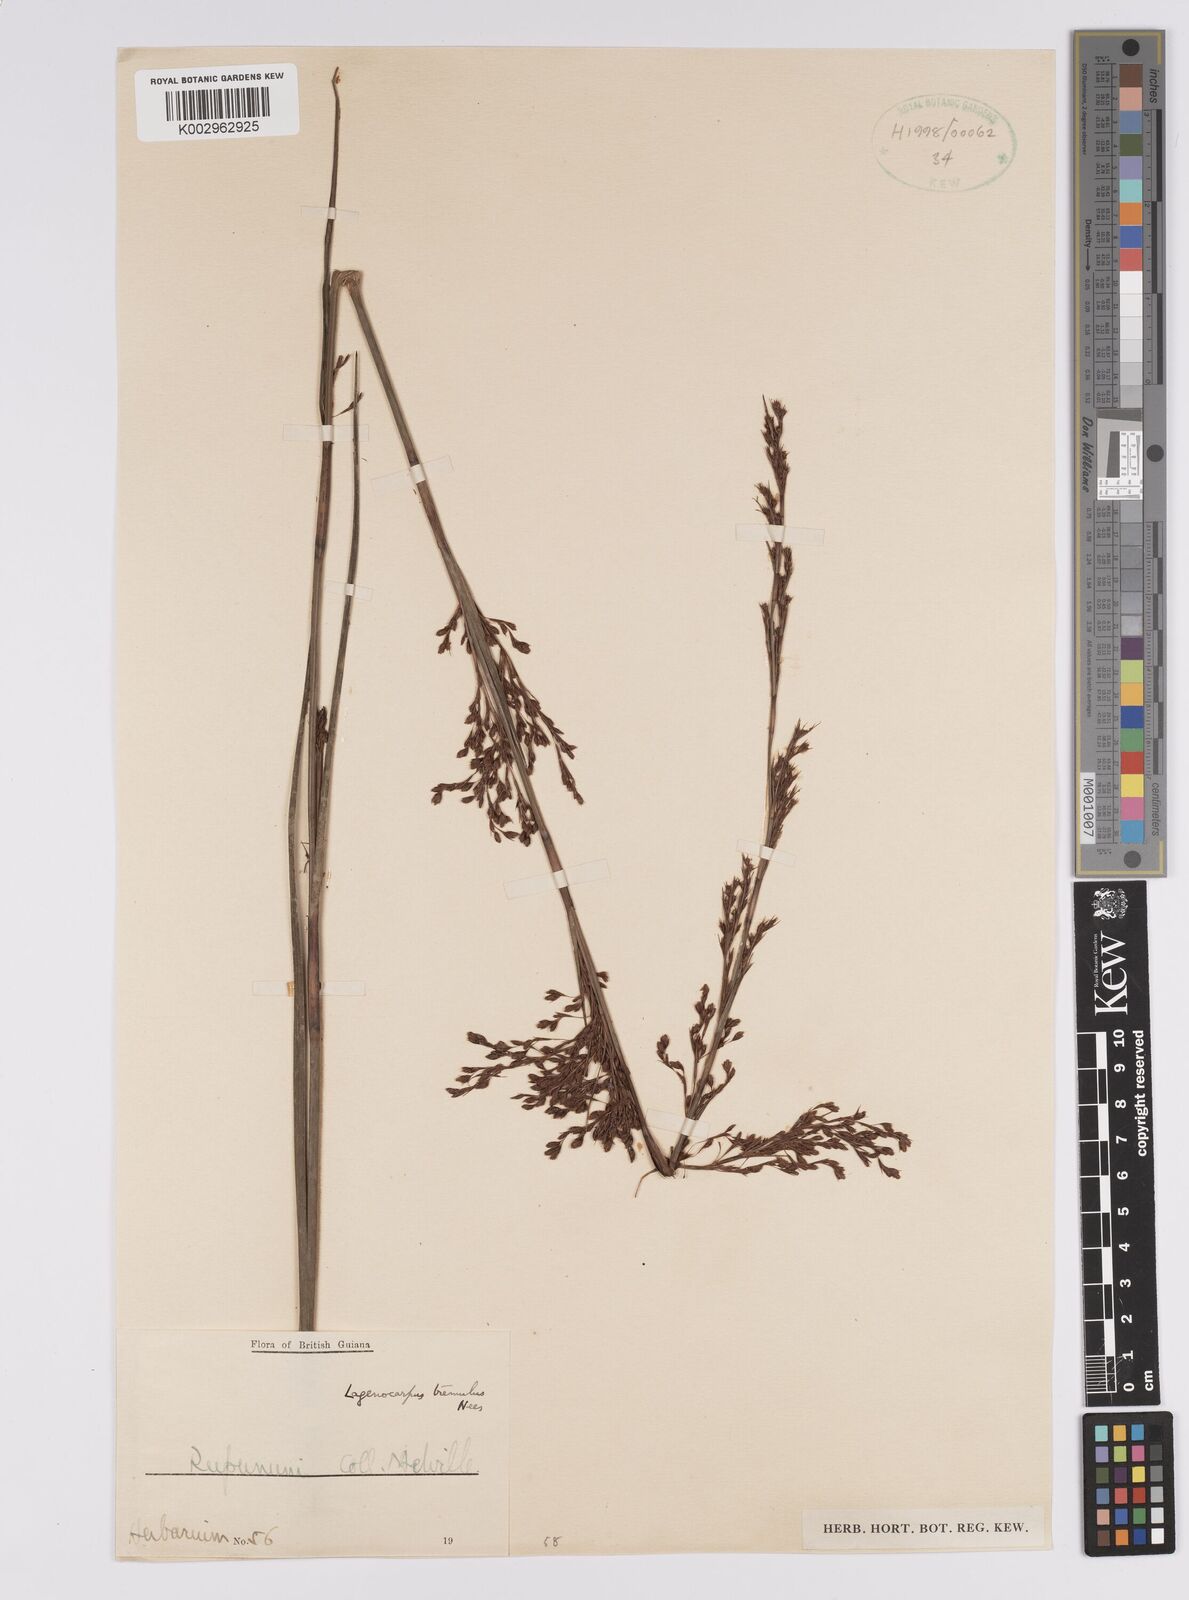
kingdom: Plantae
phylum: Tracheophyta
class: Liliopsida
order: Poales
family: Cyperaceae
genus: Lagenocarpus
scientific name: Lagenocarpus rigidus
